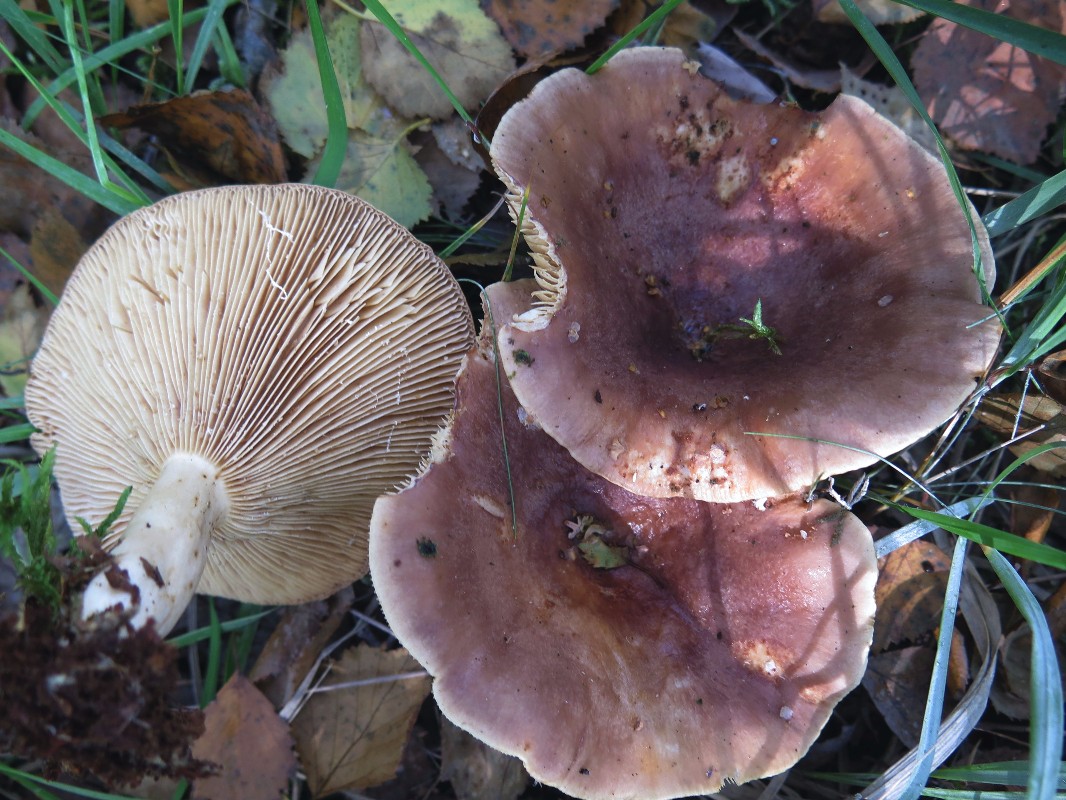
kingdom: Fungi
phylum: Basidiomycota
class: Agaricomycetes
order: Russulales
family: Russulaceae
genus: Lactarius
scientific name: Lactarius vietus
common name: violetgrå mælkehat
